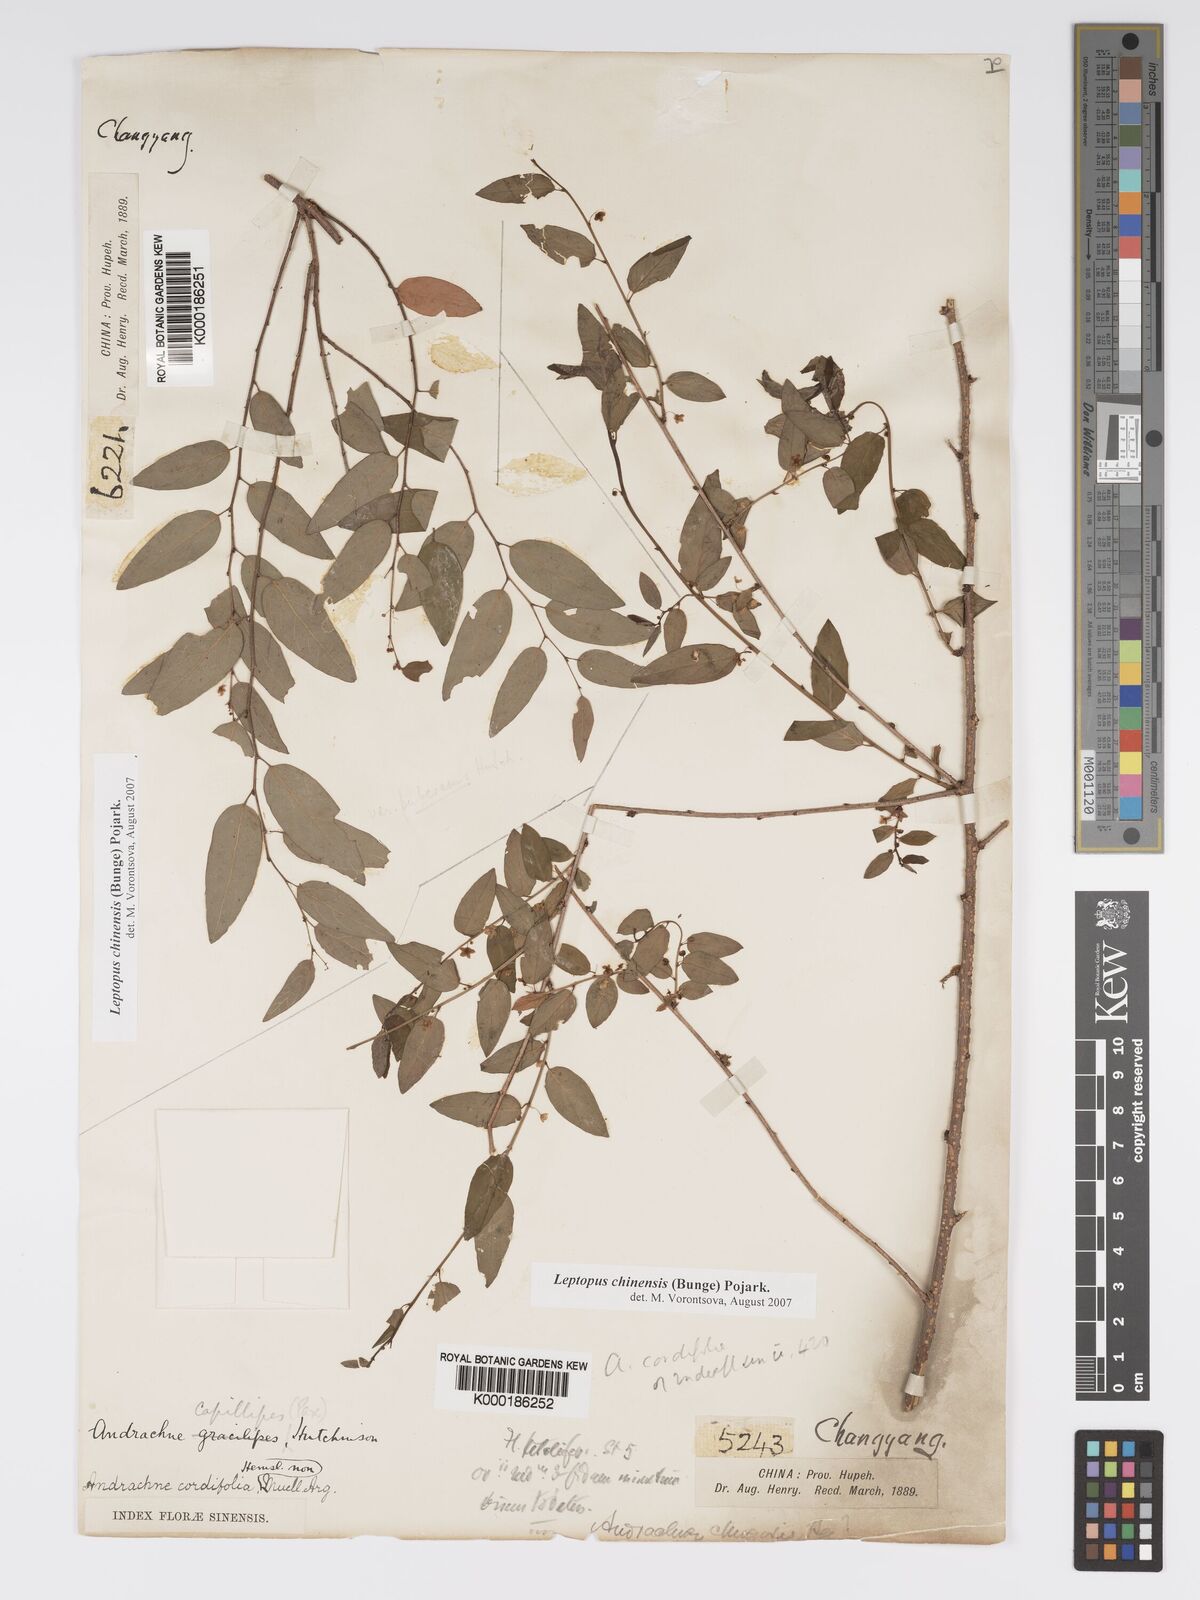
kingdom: Plantae
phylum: Tracheophyta
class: Magnoliopsida
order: Malpighiales
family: Phyllanthaceae
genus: Andrachne
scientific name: Andrachne
